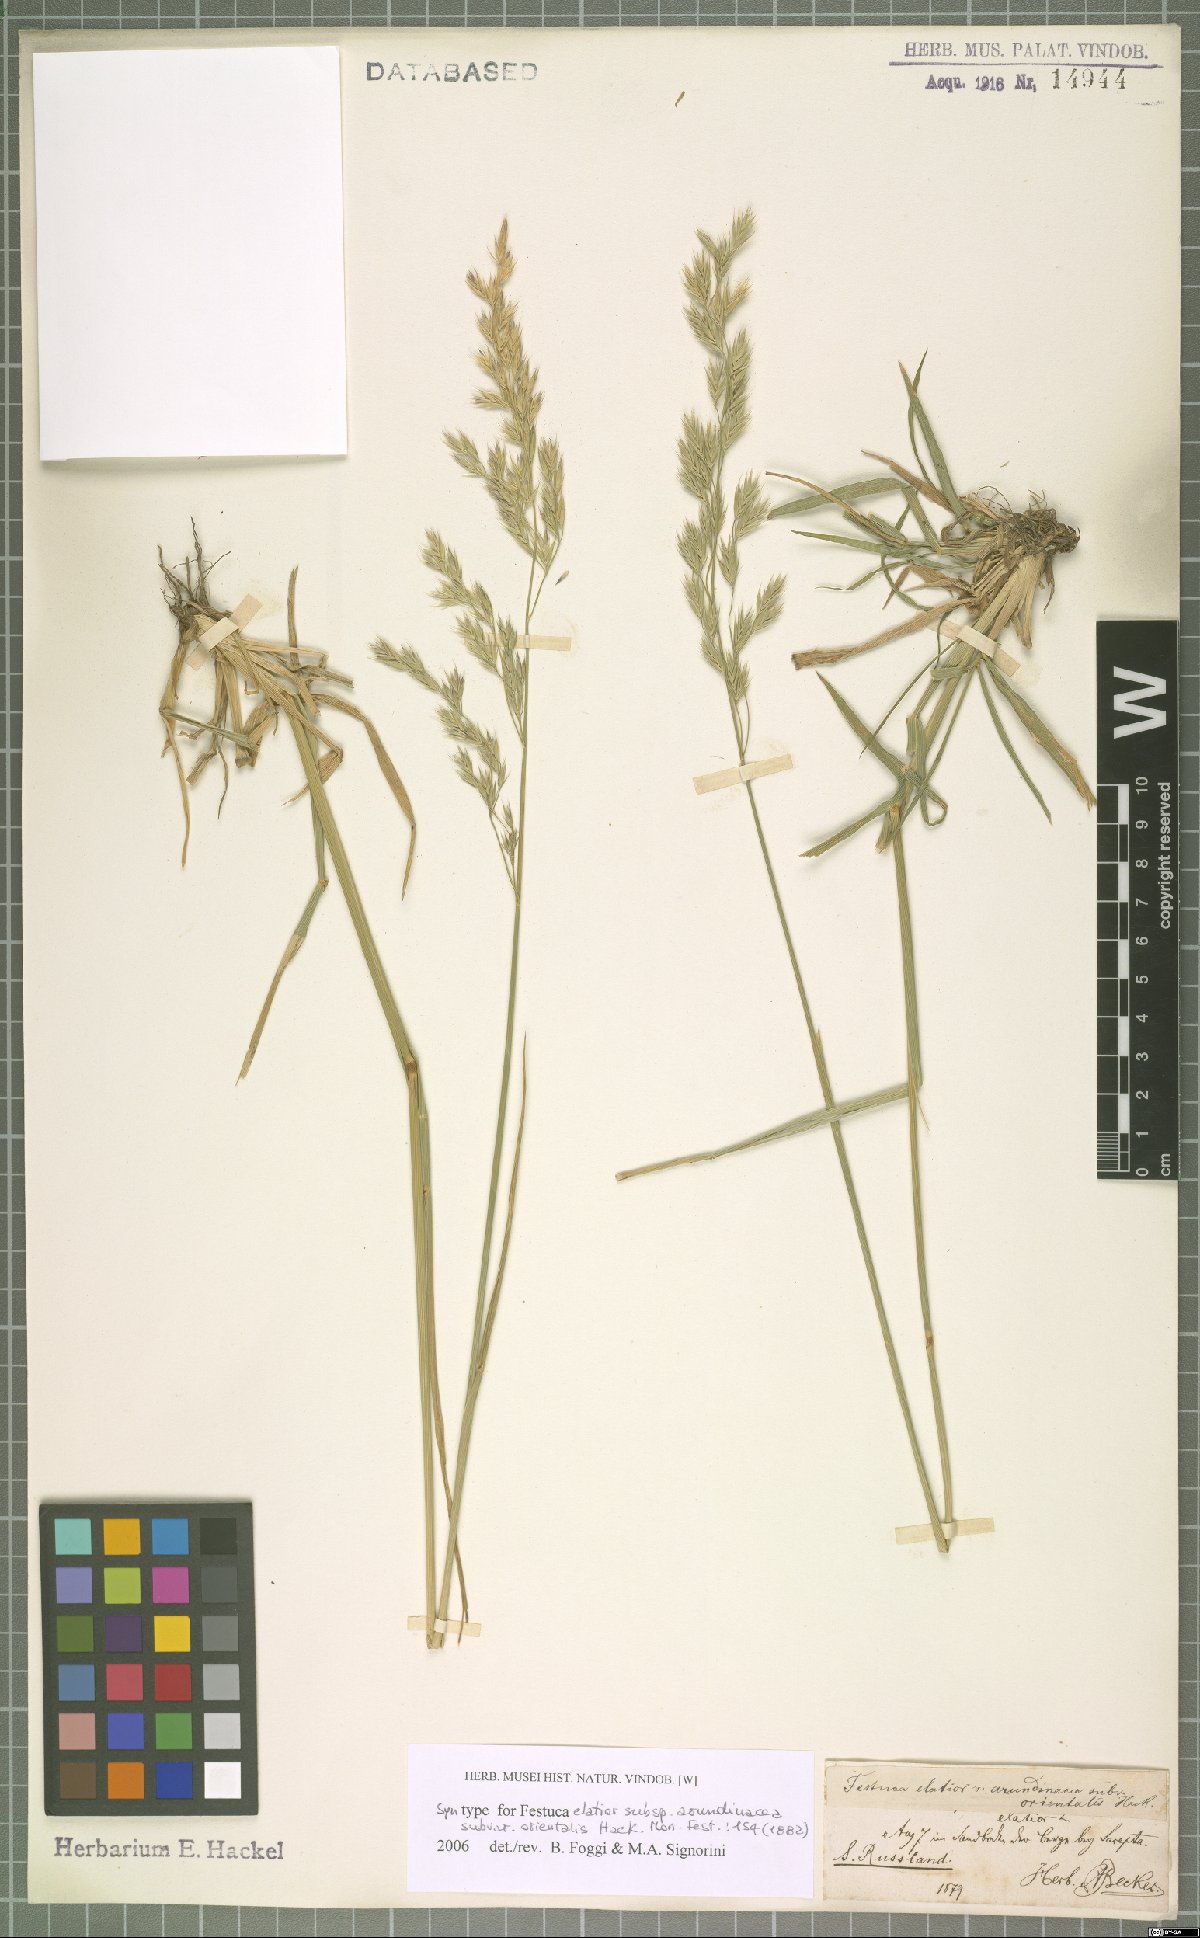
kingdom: Plantae
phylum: Tracheophyta
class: Liliopsida
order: Poales
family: Poaceae
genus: Lolium
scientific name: Lolium arundinaceum
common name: Reed fescue
